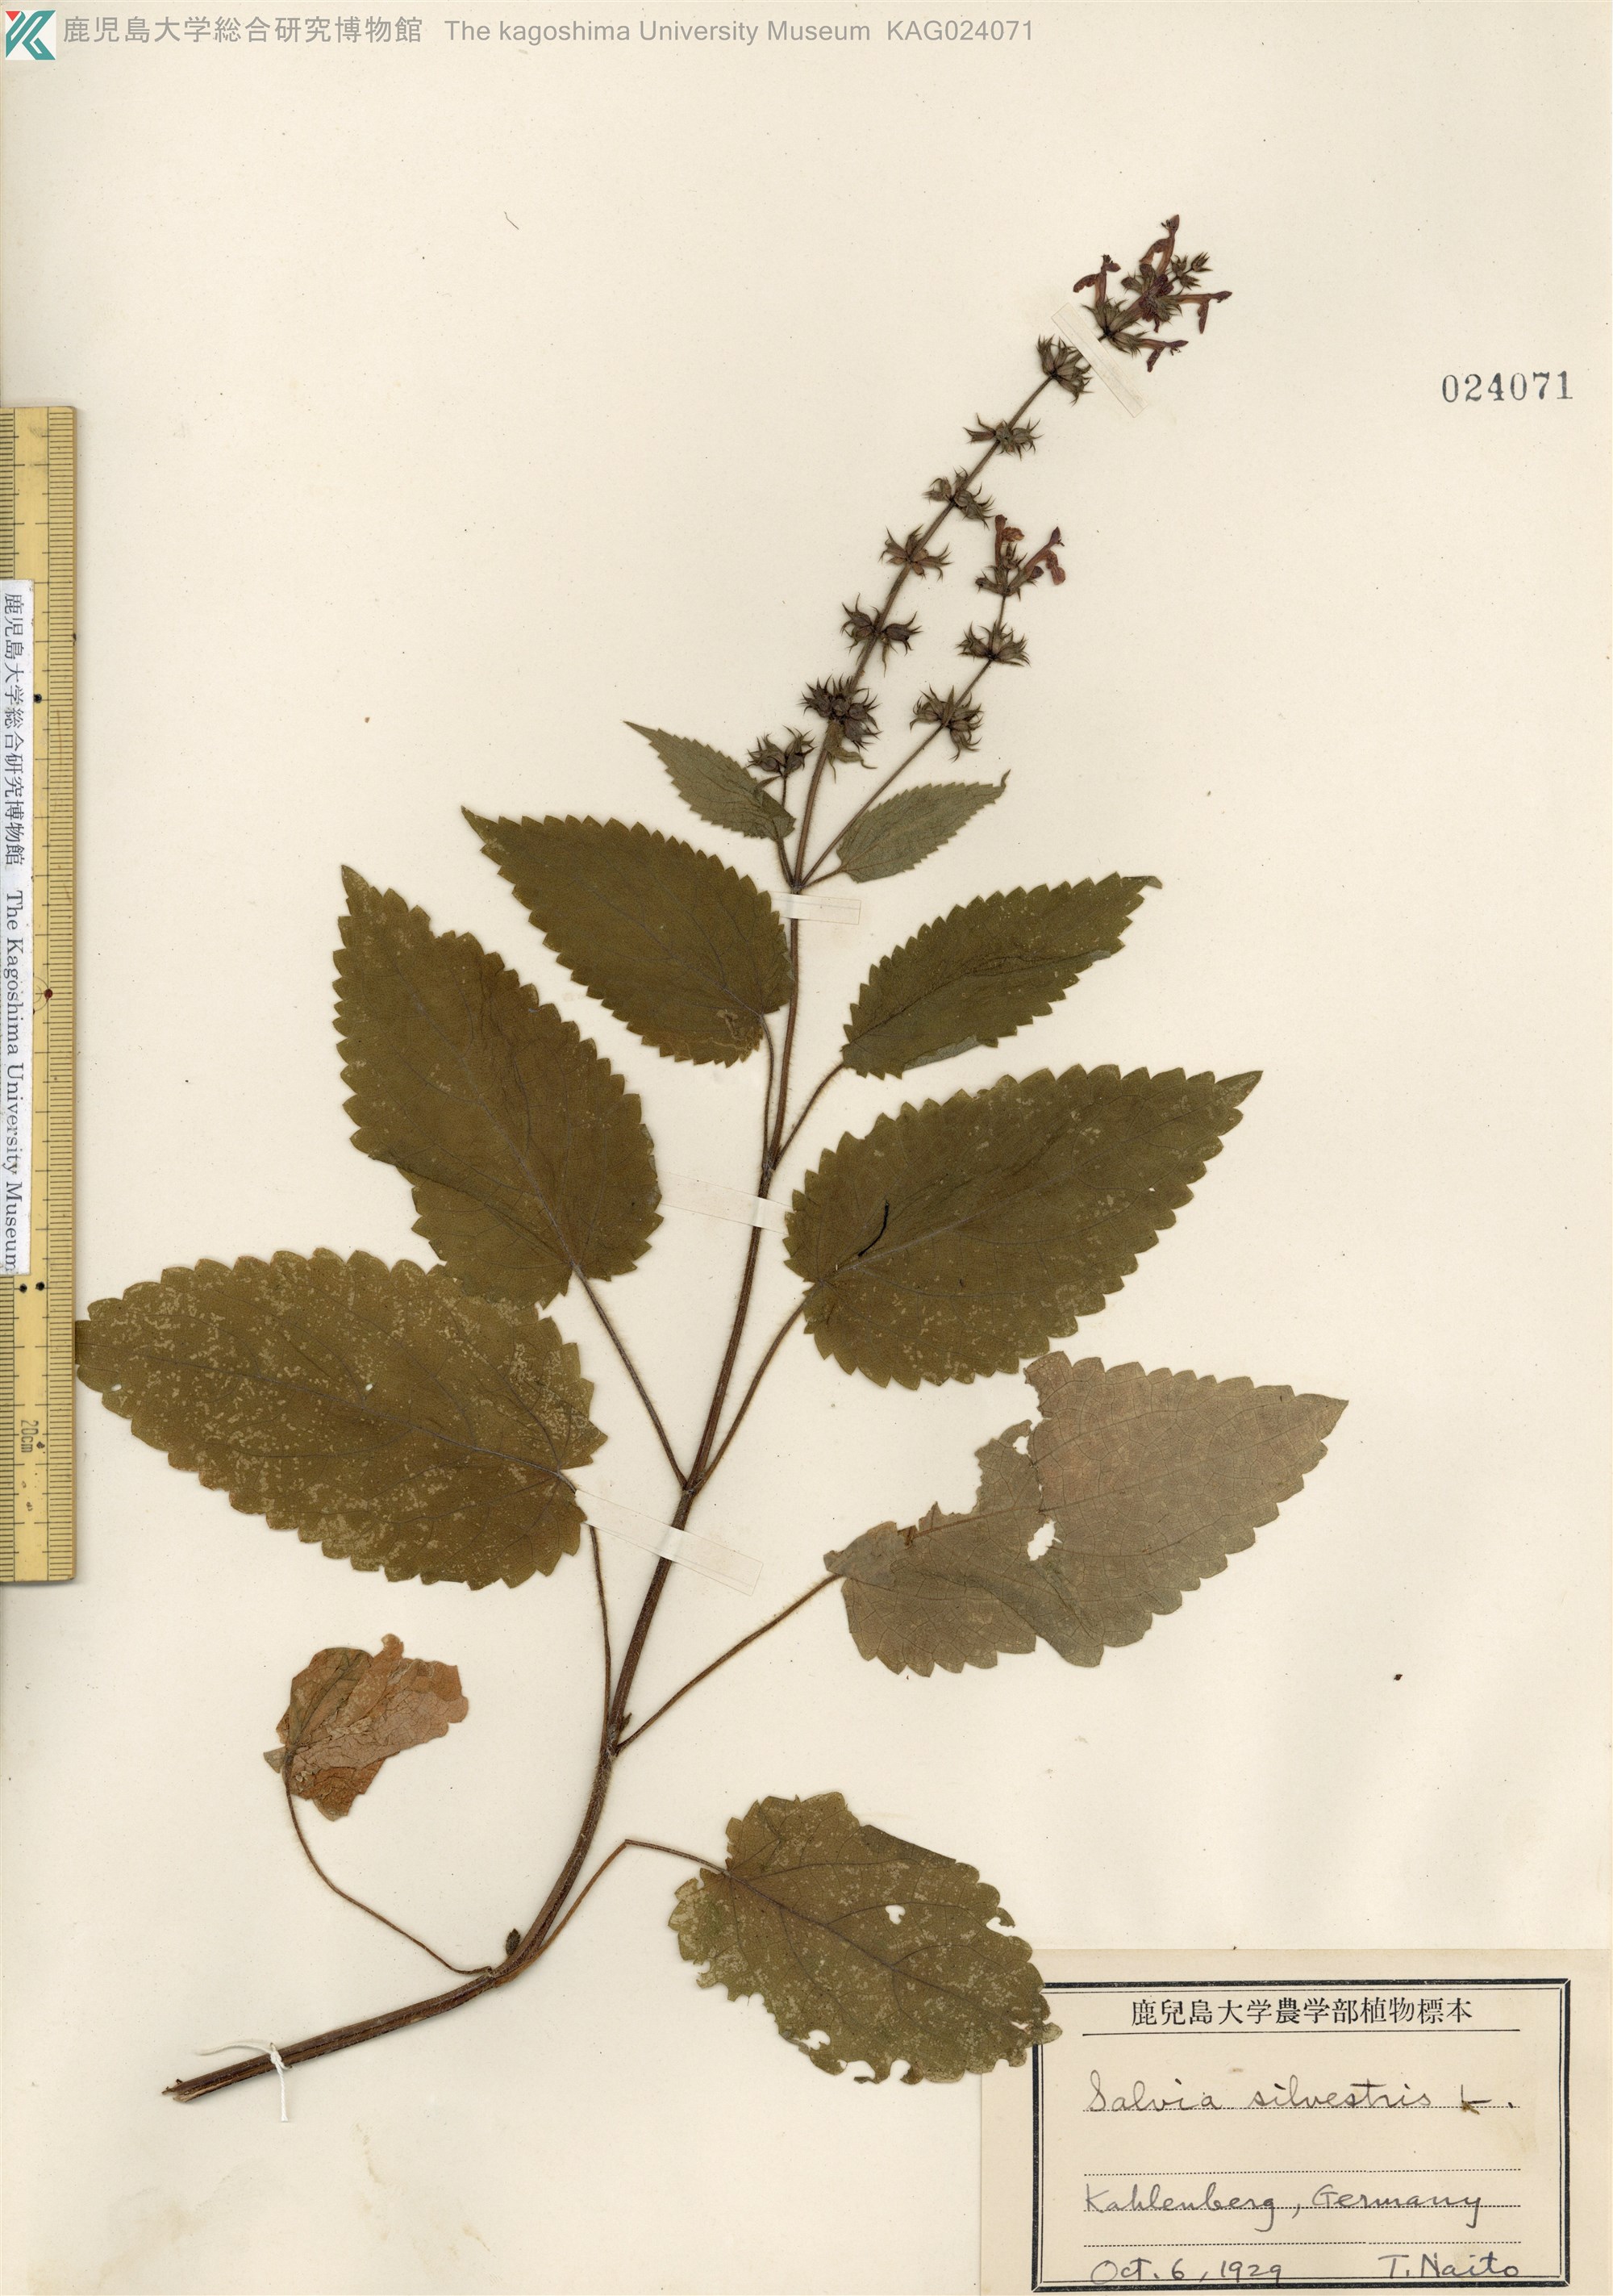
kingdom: Plantae
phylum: Tracheophyta
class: Magnoliopsida
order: Lamiales
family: Lamiaceae
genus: Salvia
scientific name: Salvia sylvestris
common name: Woodland sage
